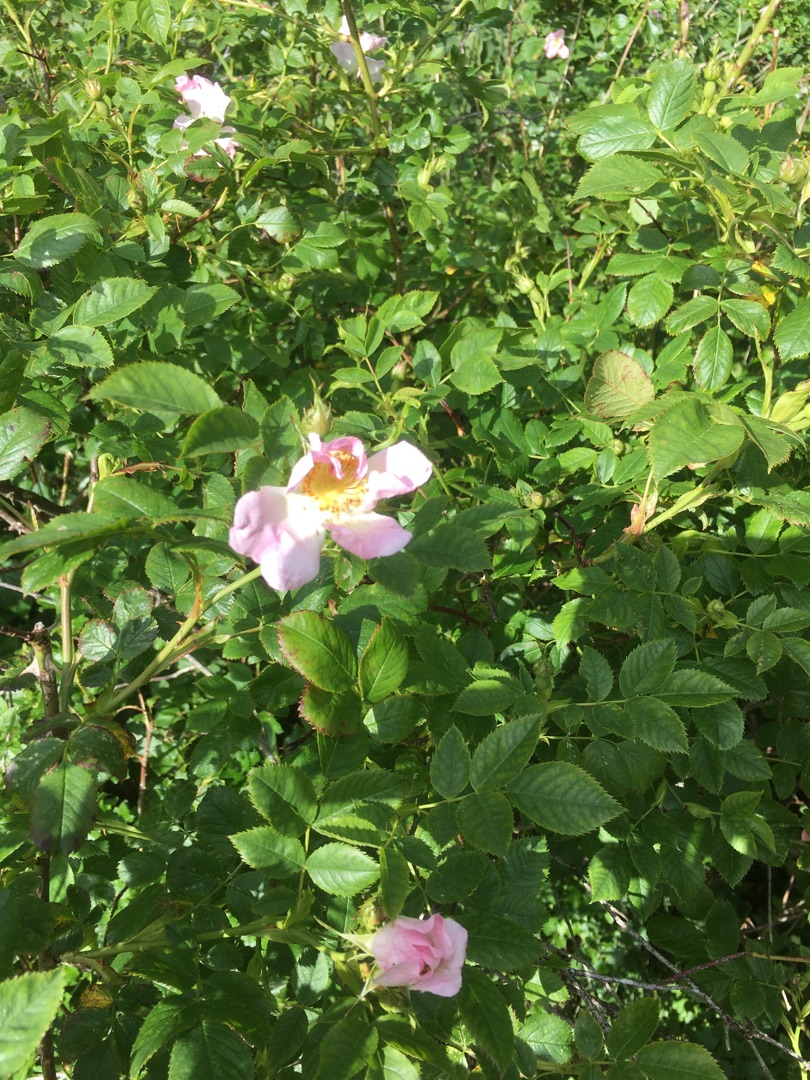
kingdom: Plantae
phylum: Tracheophyta
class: Magnoliopsida
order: Rosales
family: Rosaceae
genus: Rosa
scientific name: Rosa canina
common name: Glat hunde-rose
